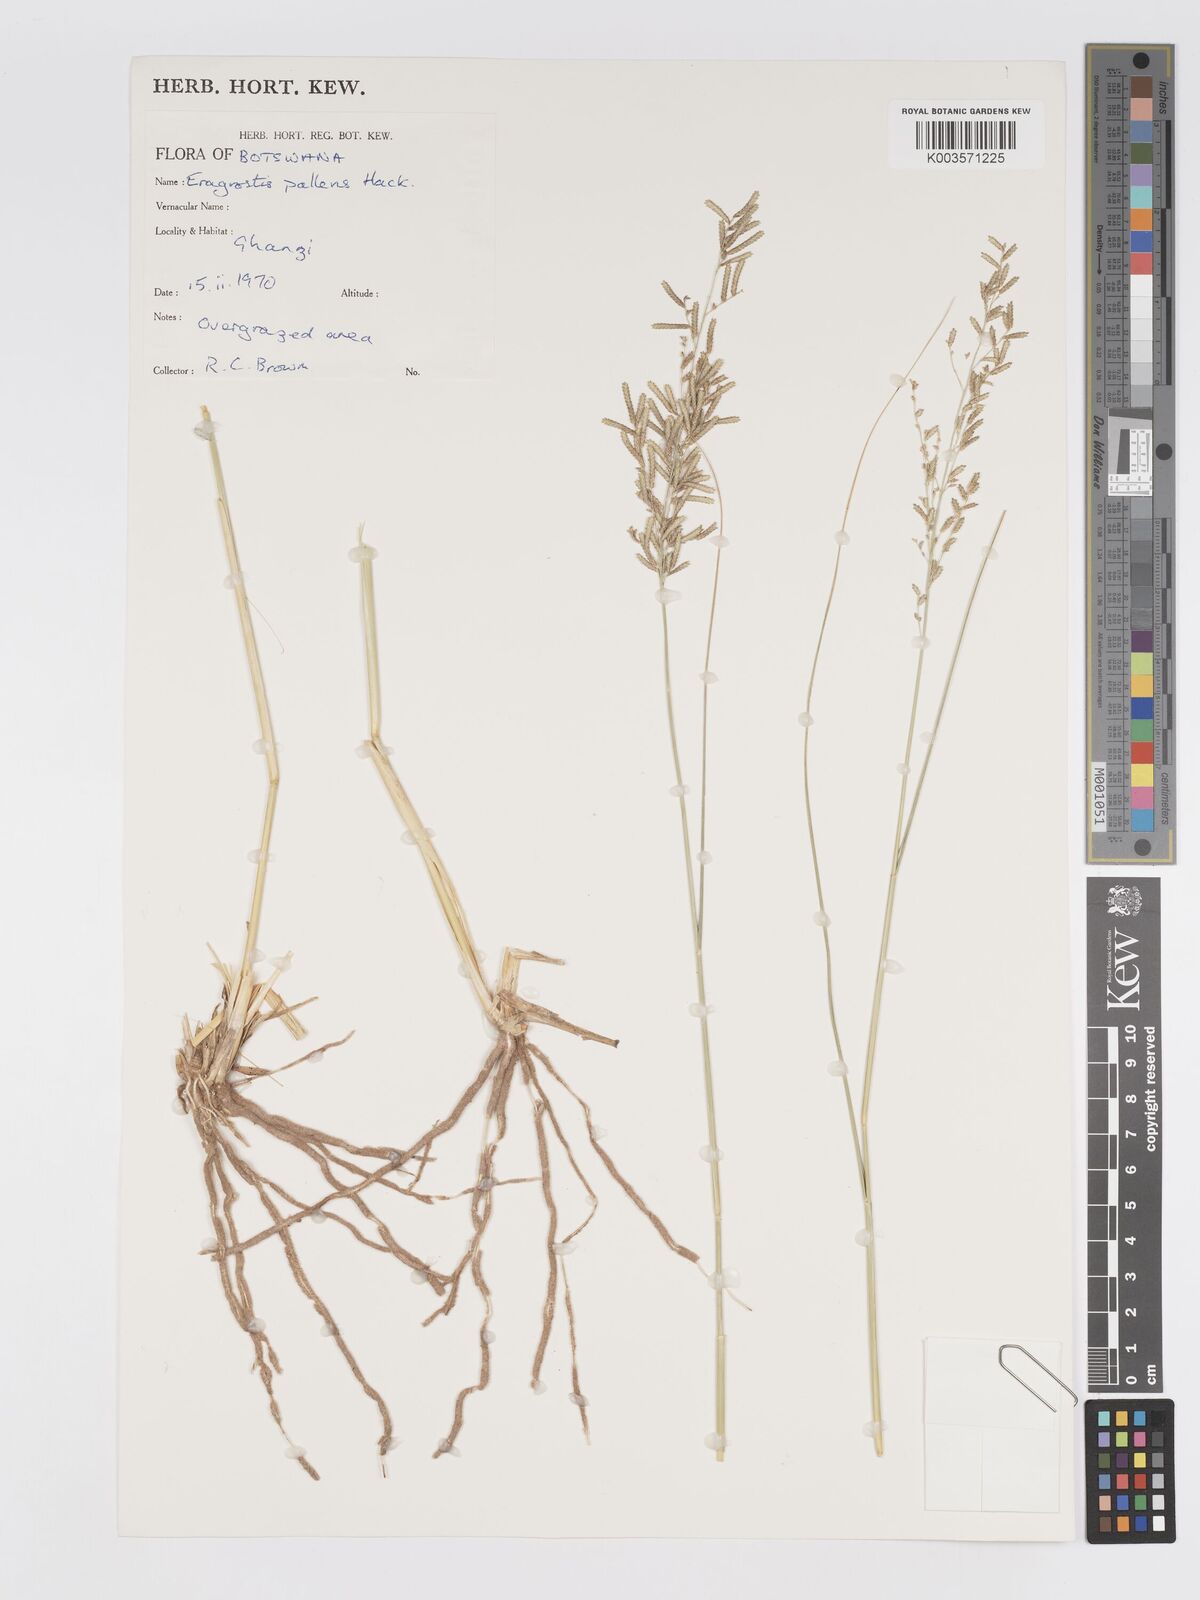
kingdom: Plantae
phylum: Tracheophyta
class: Liliopsida
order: Poales
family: Poaceae
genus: Eragrostis
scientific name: Eragrostis pallens
